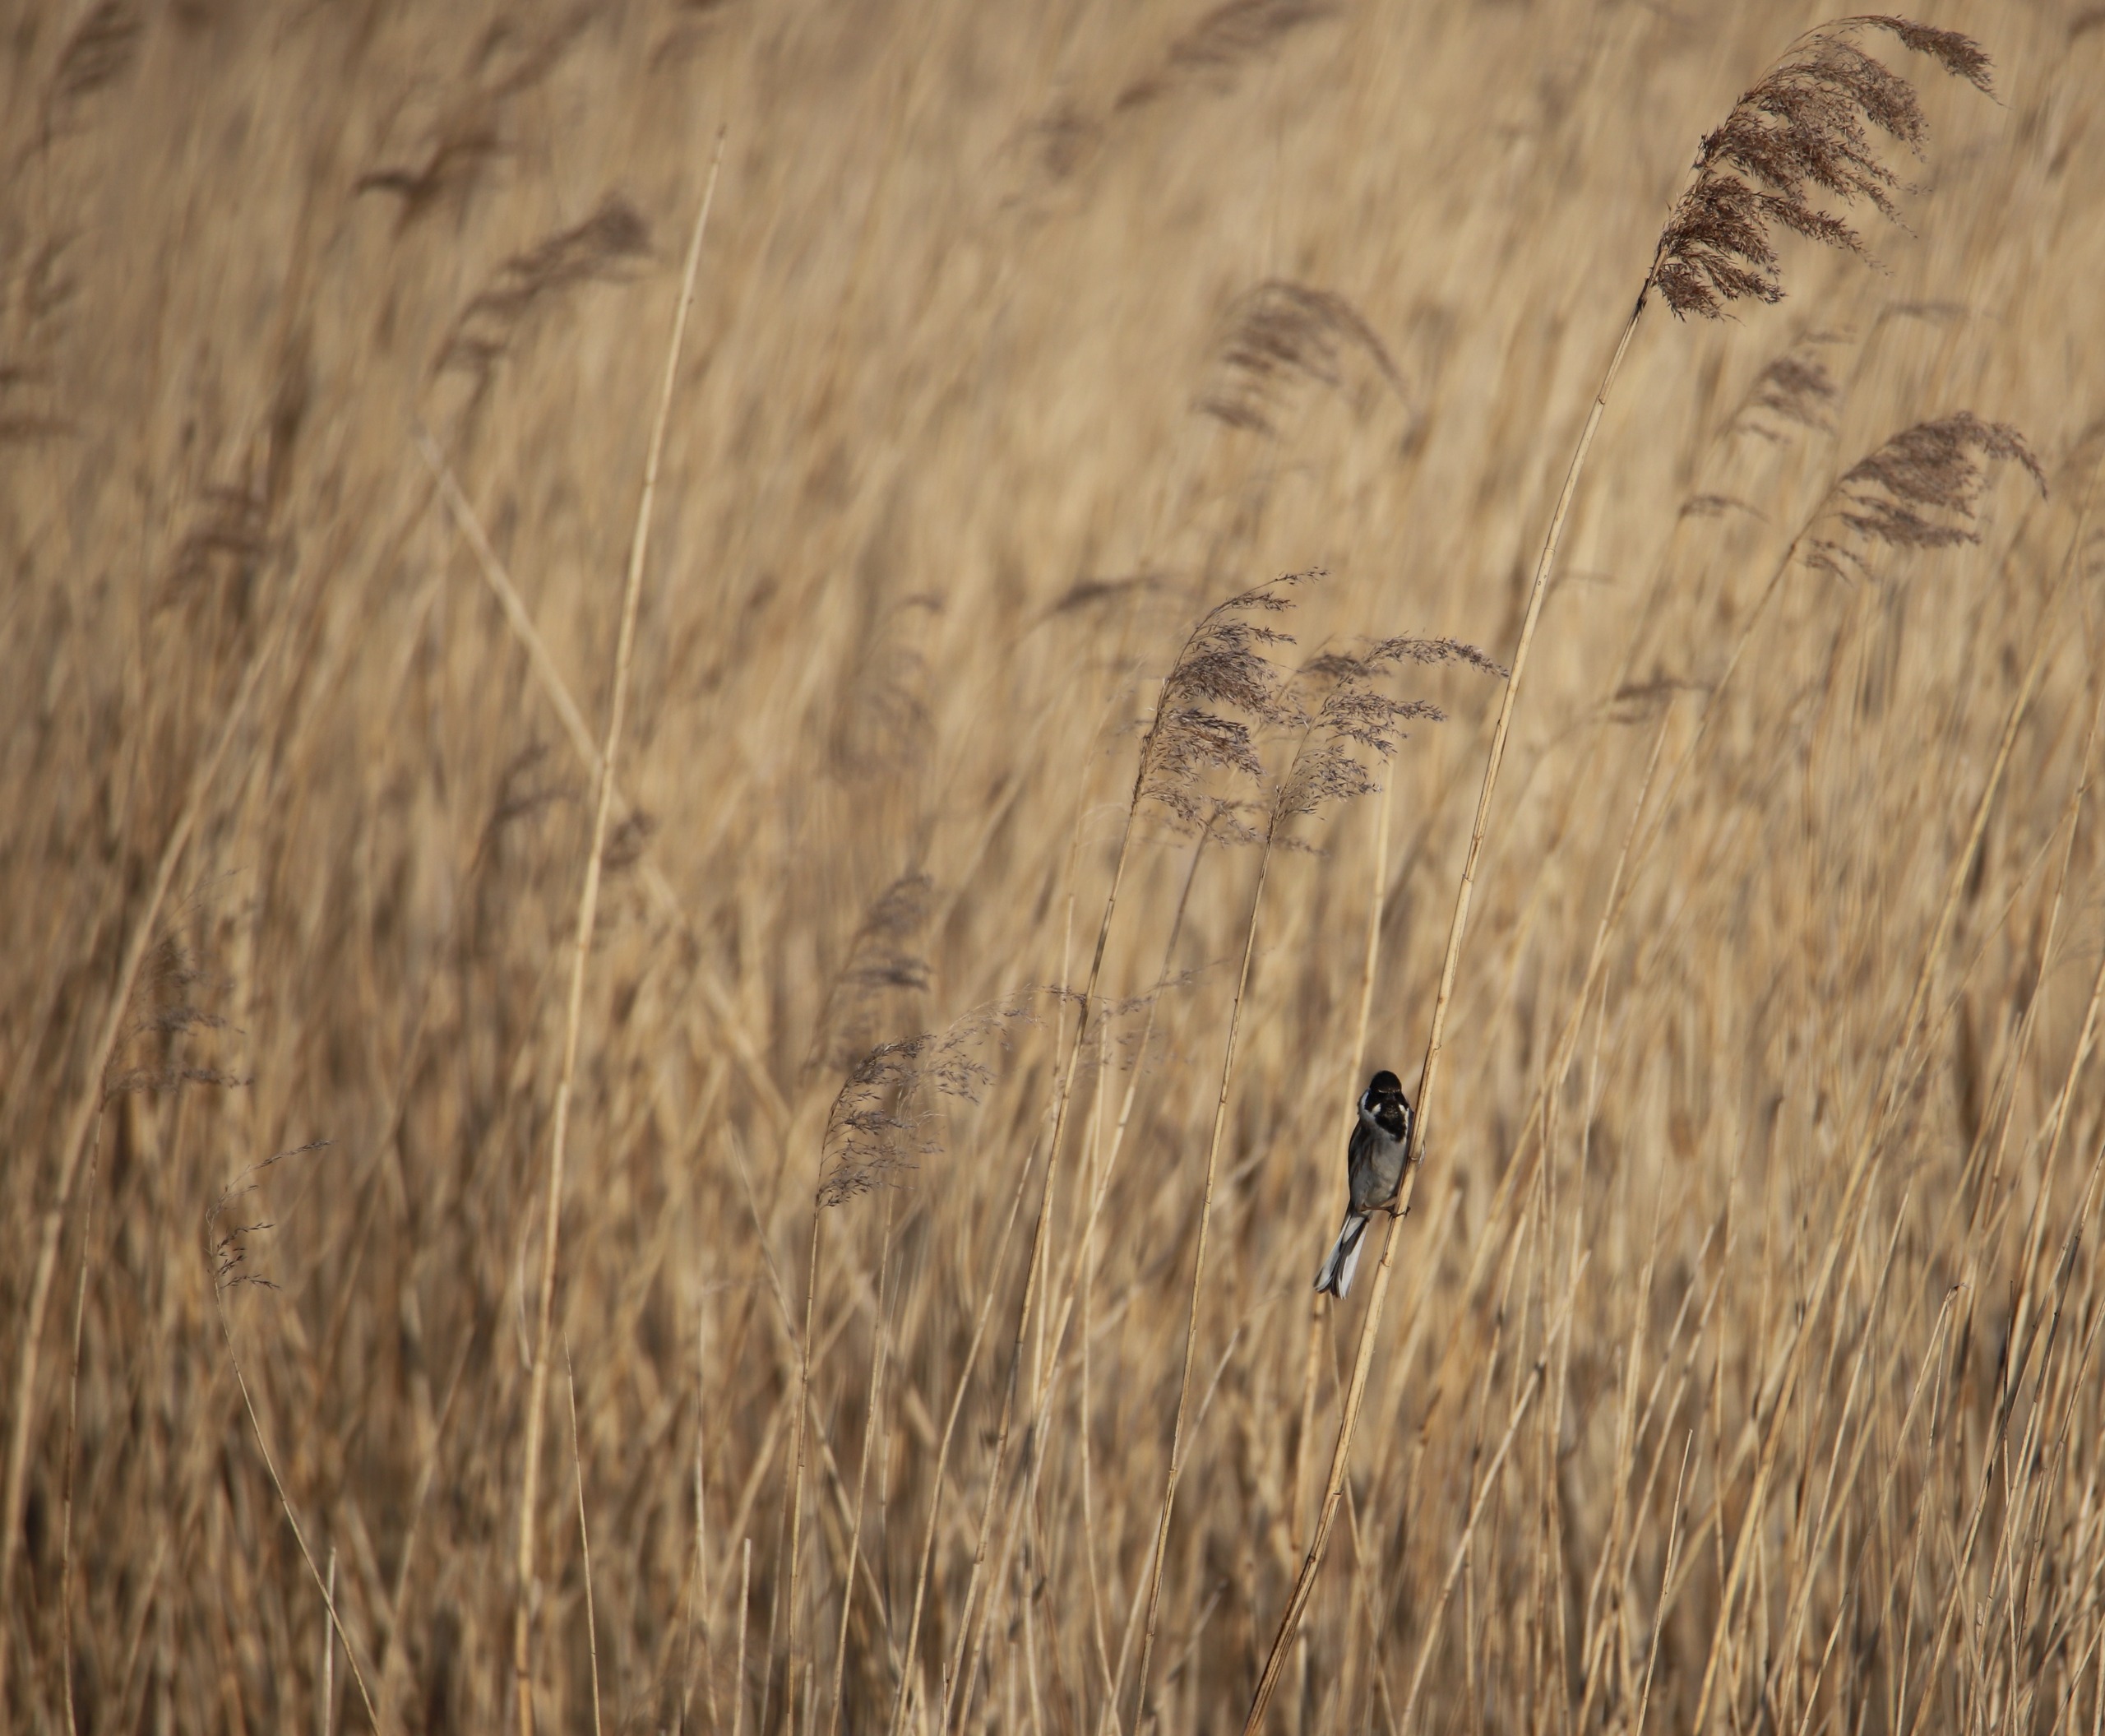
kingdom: Animalia
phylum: Chordata
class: Aves
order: Passeriformes
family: Emberizidae
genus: Emberiza
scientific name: Emberiza schoeniclus
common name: Rørspurv
